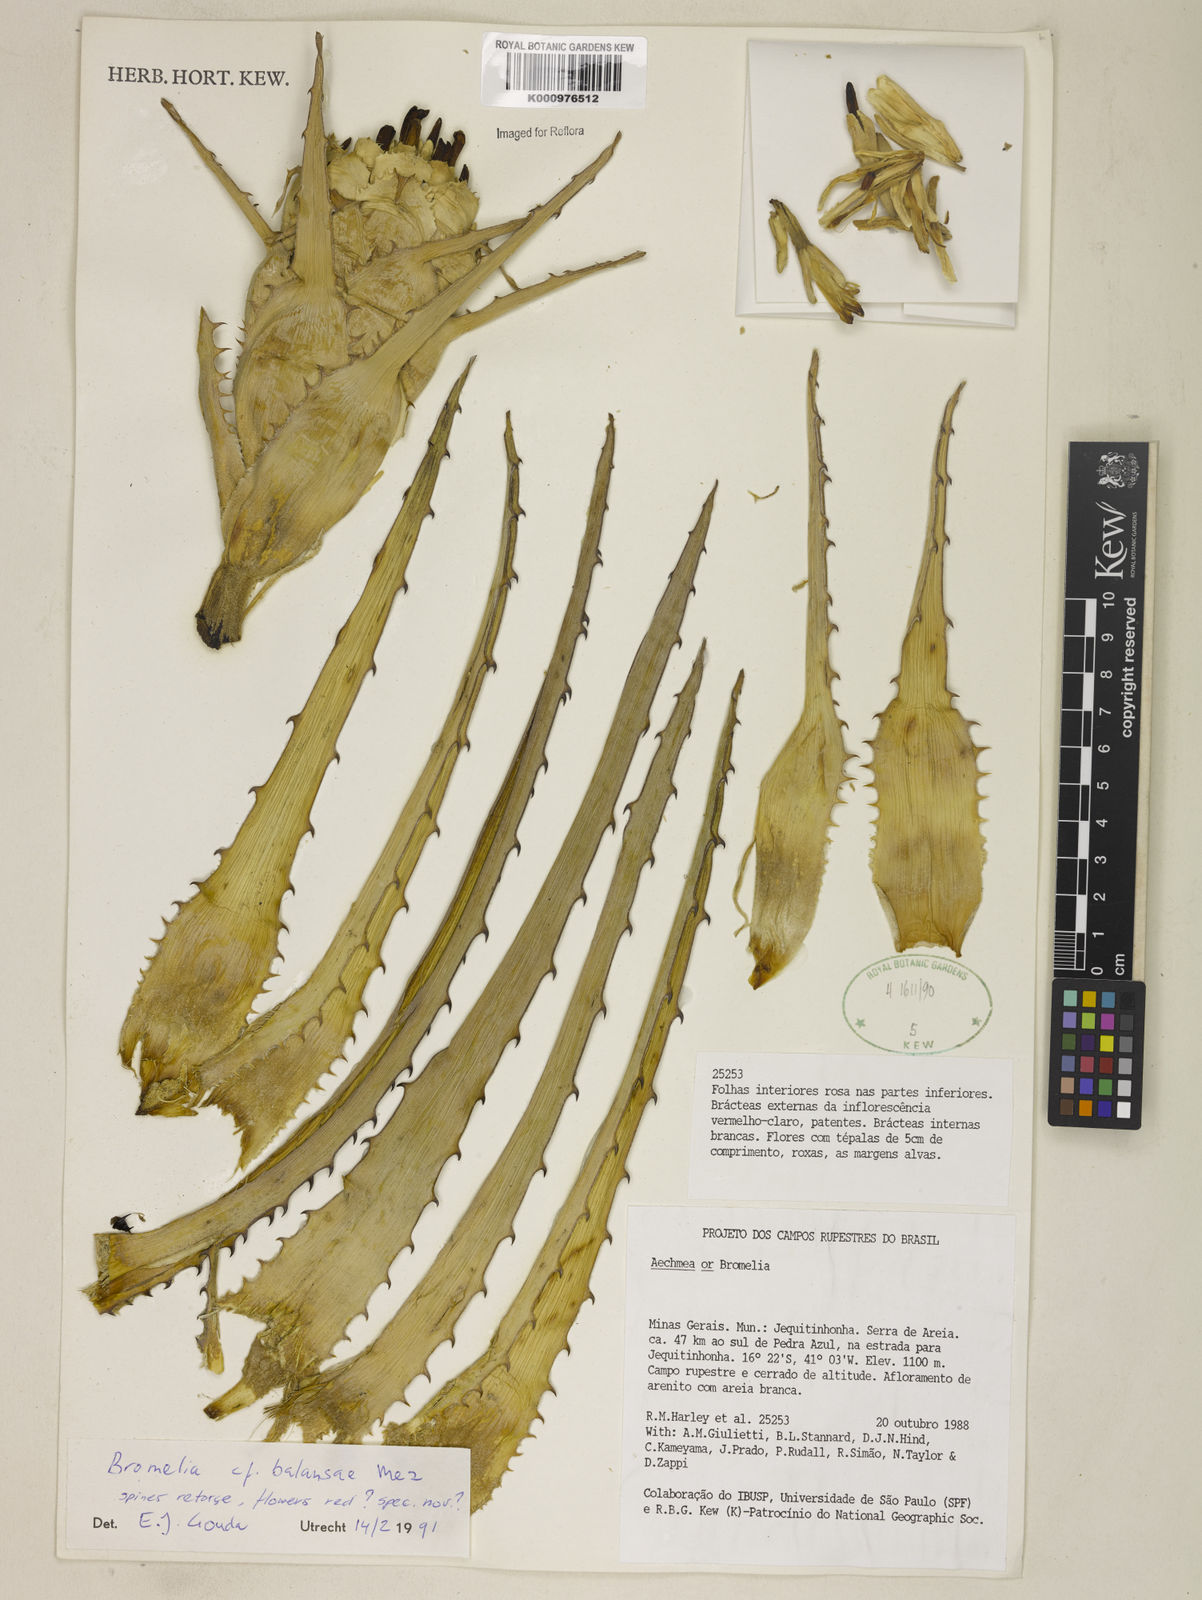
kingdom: Plantae
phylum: Tracheophyta
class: Liliopsida
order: Poales
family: Bromeliaceae
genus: Bromelia
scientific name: Bromelia balansae
